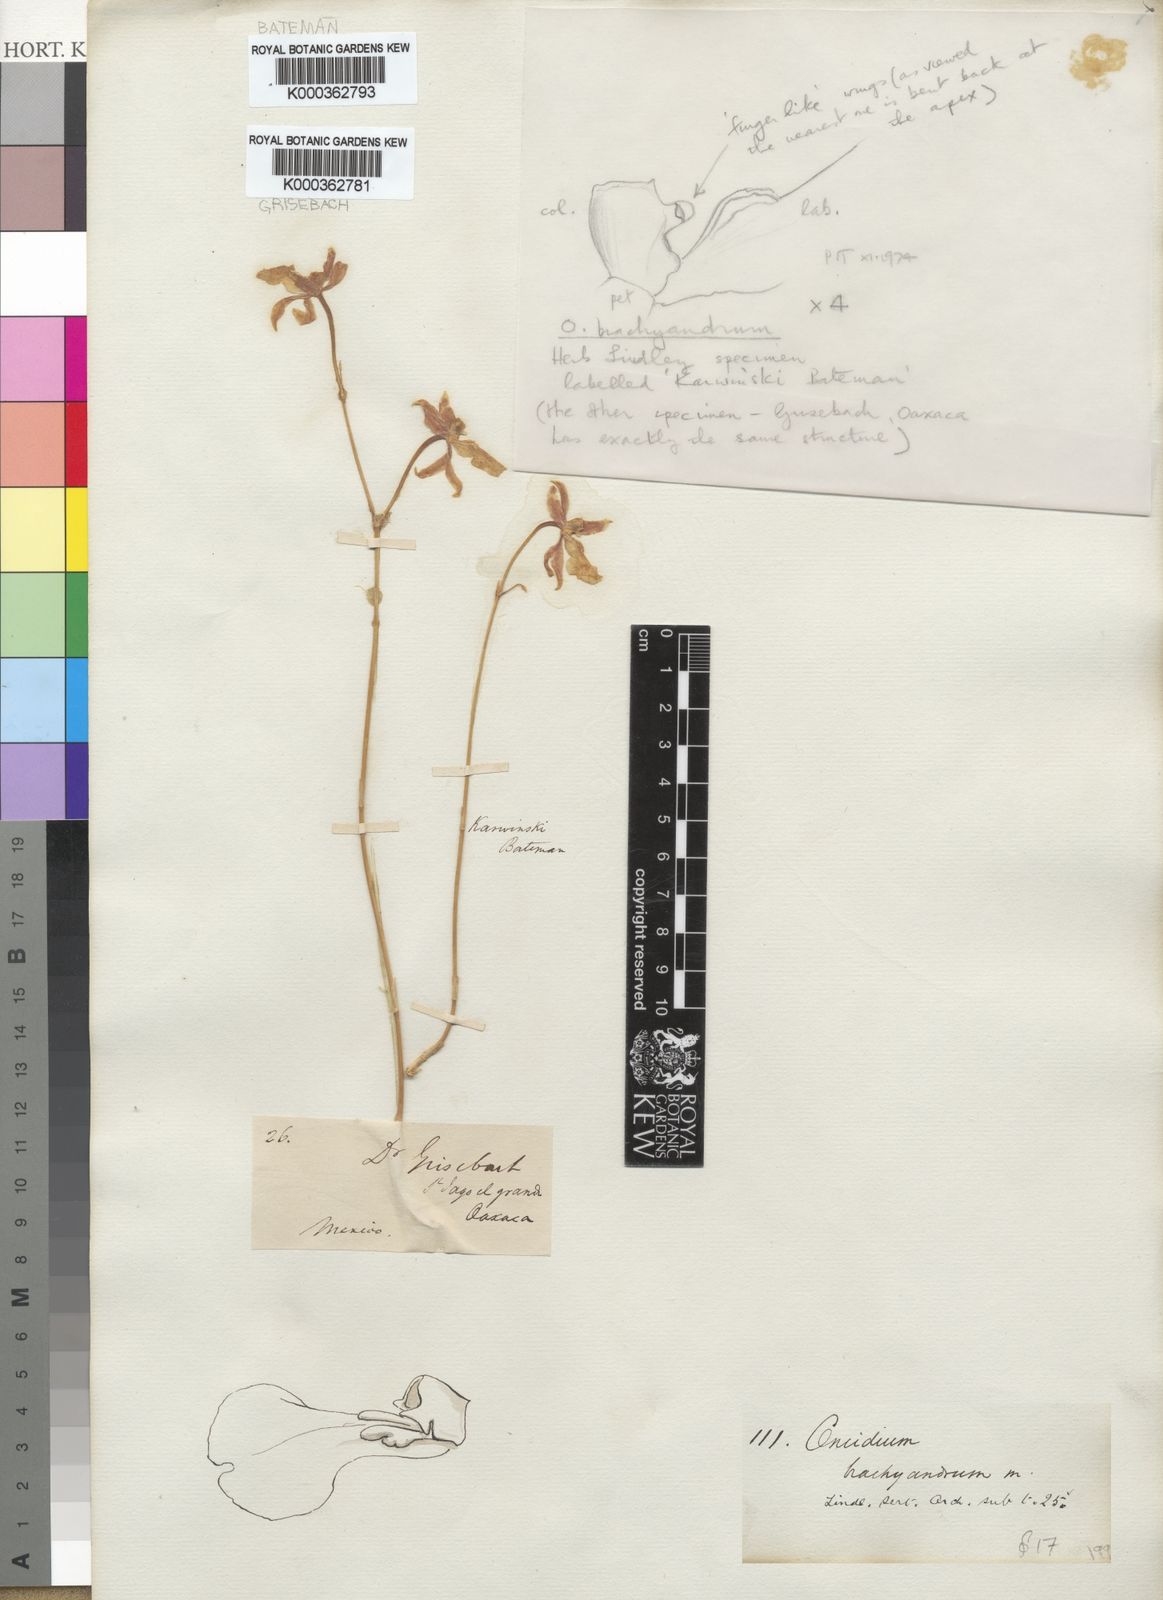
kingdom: Plantae
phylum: Tracheophyta
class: Liliopsida
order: Asparagales
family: Orchidaceae
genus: Oncidium
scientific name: Oncidium brachyandrum
